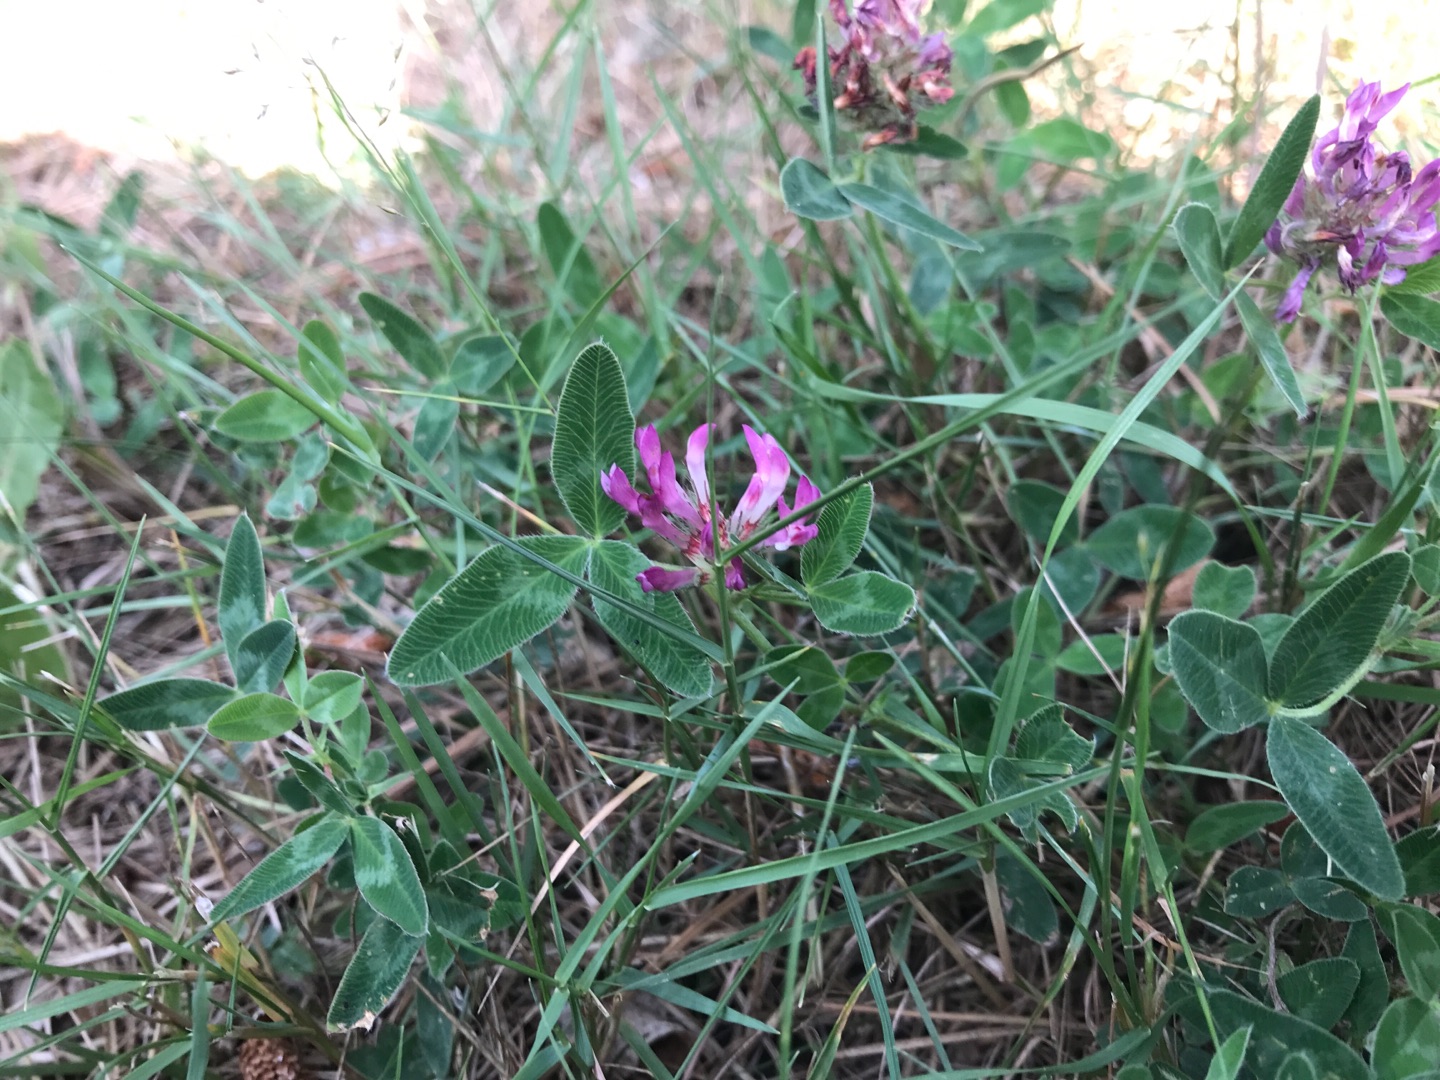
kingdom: Plantae
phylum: Tracheophyta
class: Magnoliopsida
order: Fabales
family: Fabaceae
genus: Trifolium
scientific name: Trifolium medium
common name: Bugtet kløver
